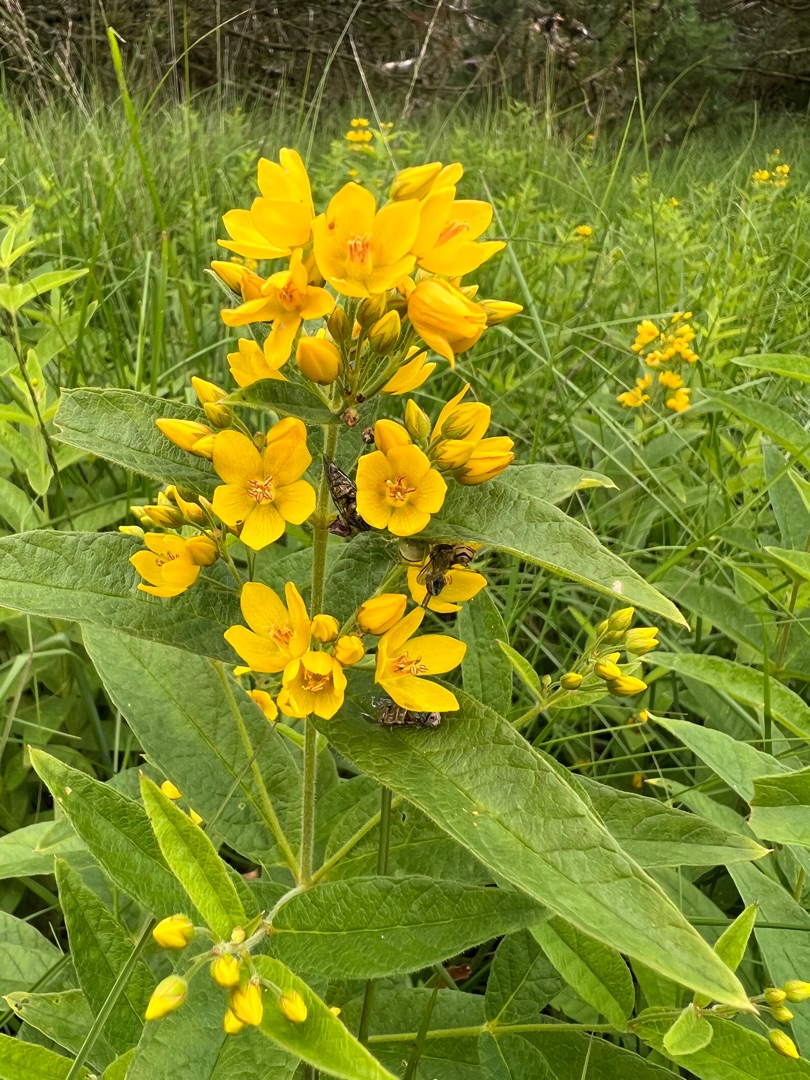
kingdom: Plantae
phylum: Tracheophyta
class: Magnoliopsida
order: Ericales
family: Primulaceae
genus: Lysimachia
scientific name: Lysimachia vulgaris
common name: Almindelig fredløs
